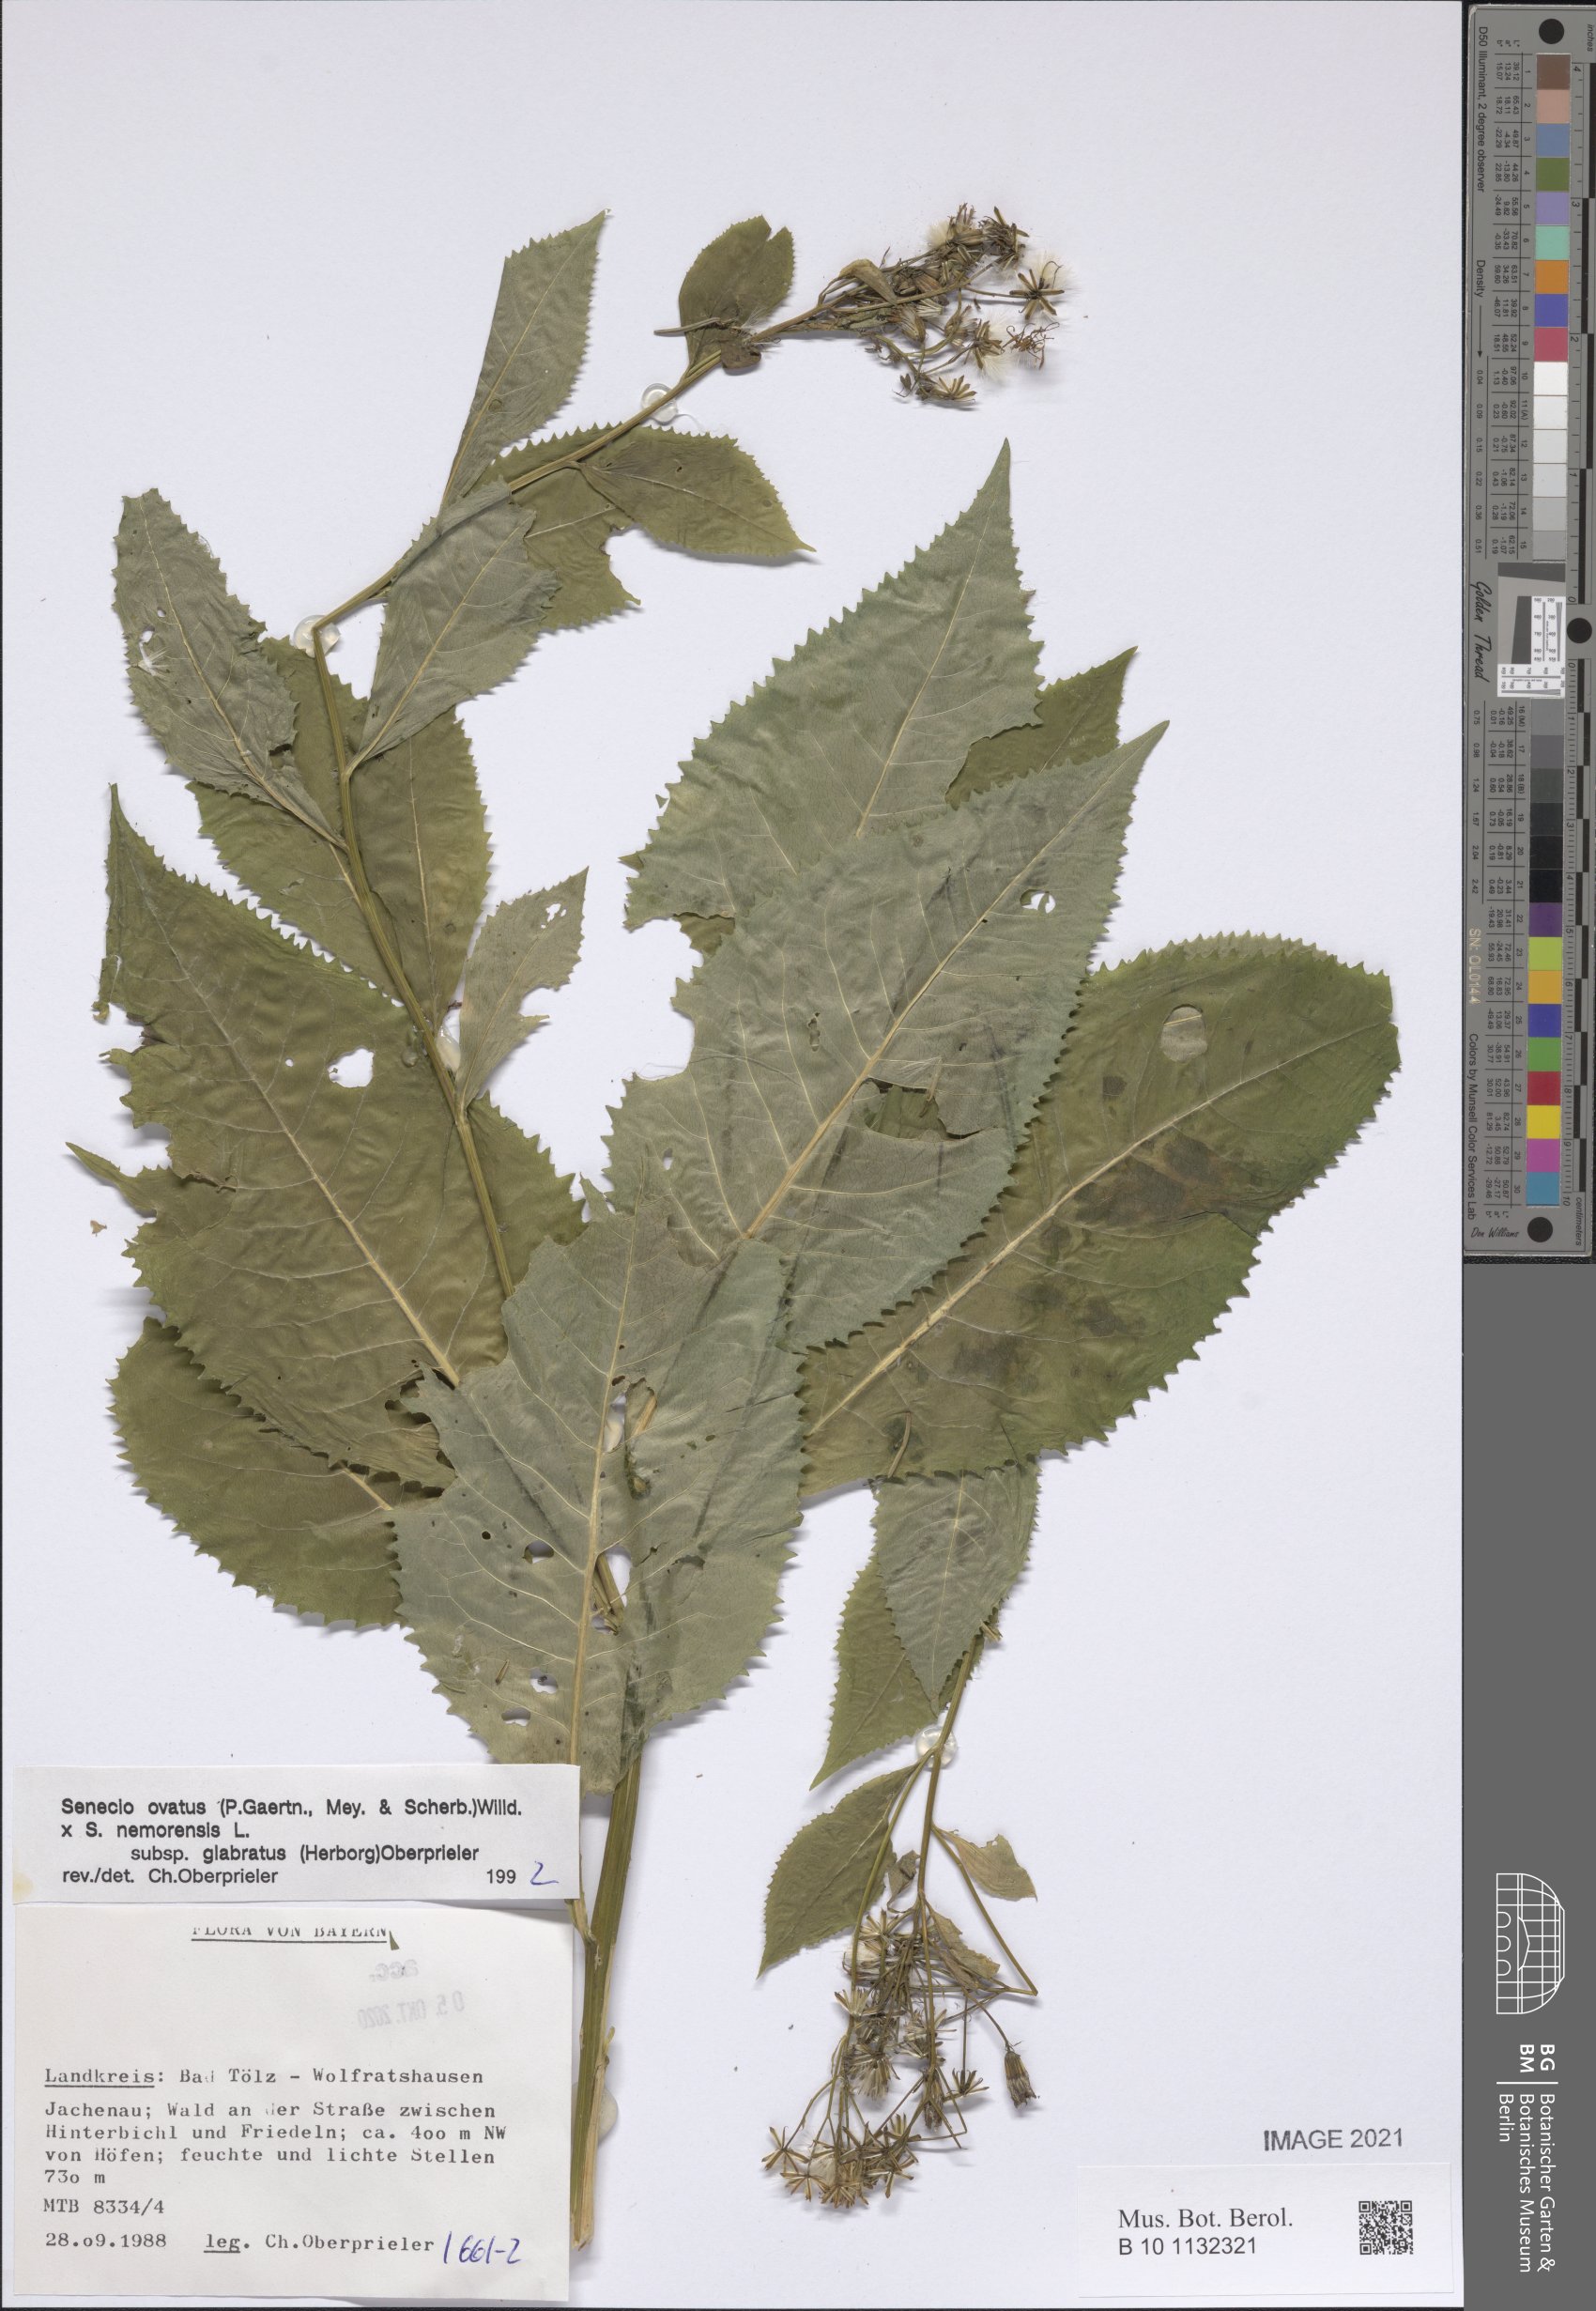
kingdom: Plantae
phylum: Tracheophyta
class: Magnoliopsida
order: Asterales
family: Asteraceae
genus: Senecio
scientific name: Senecio ovatus
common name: Wood ragwort
